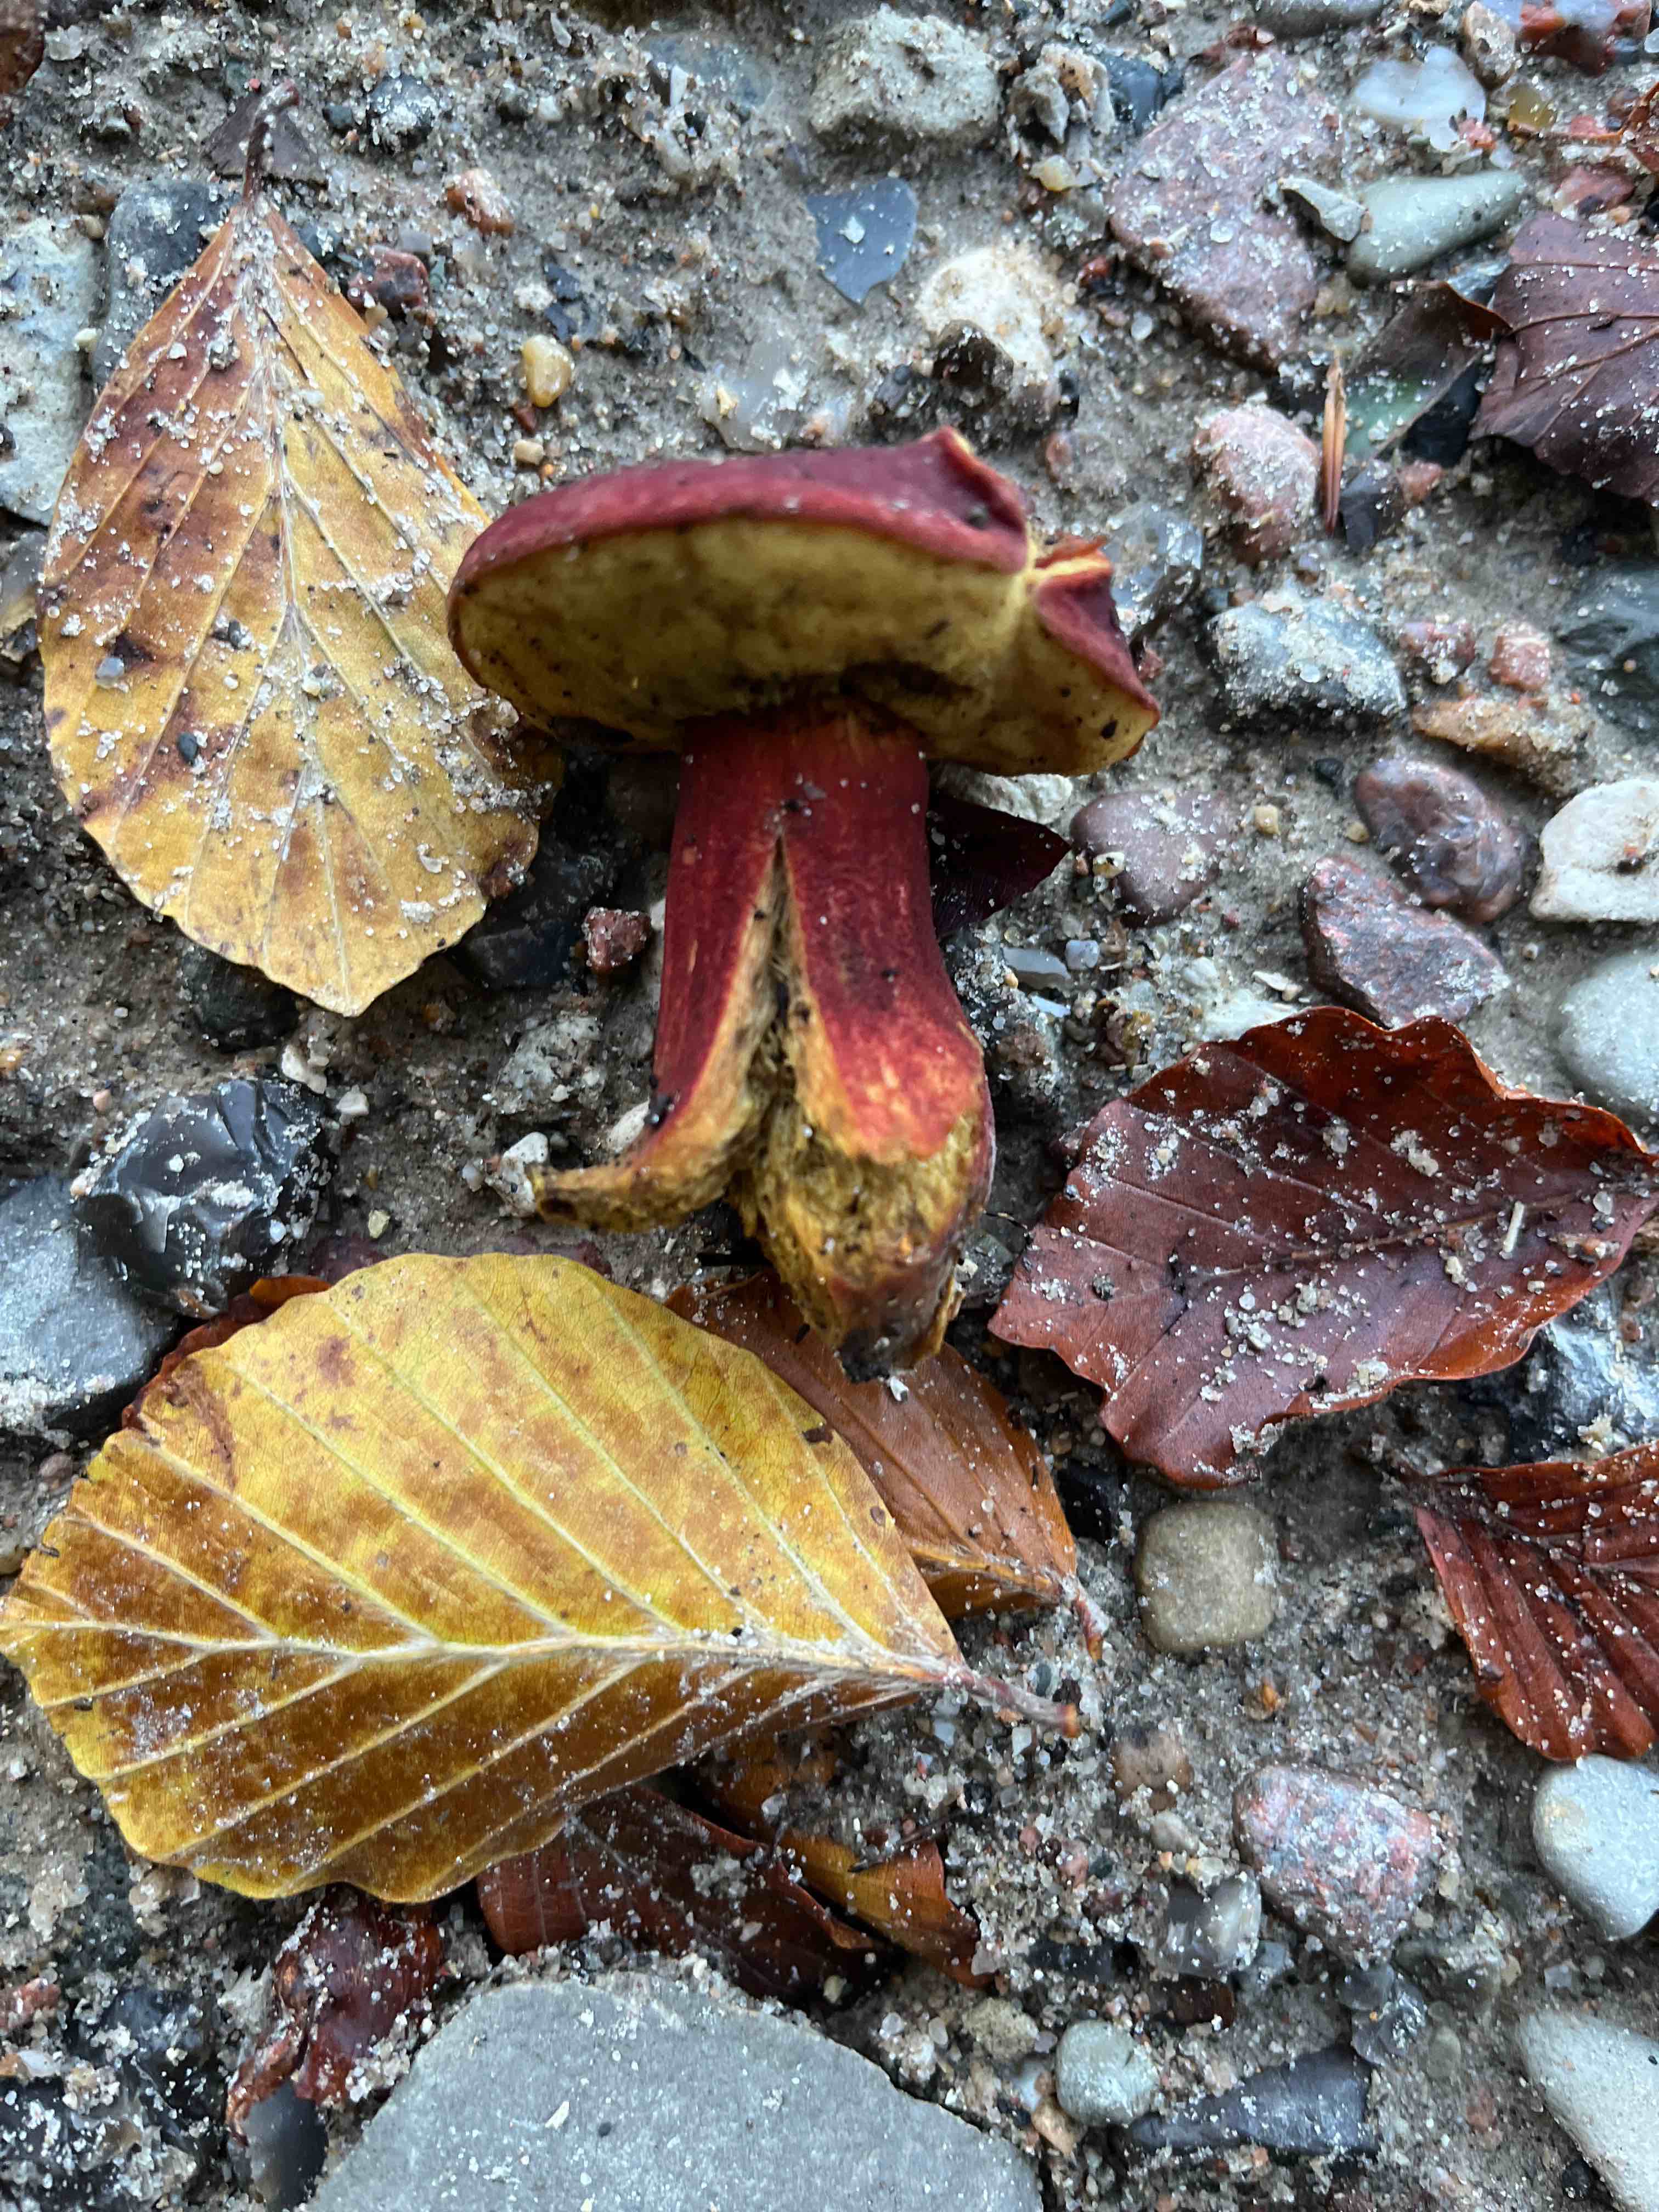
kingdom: Fungi
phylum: Basidiomycota
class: Agaricomycetes
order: Boletales
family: Boletaceae
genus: Hortiboletus
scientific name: Hortiboletus rubellus
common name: blodrød rørhat
